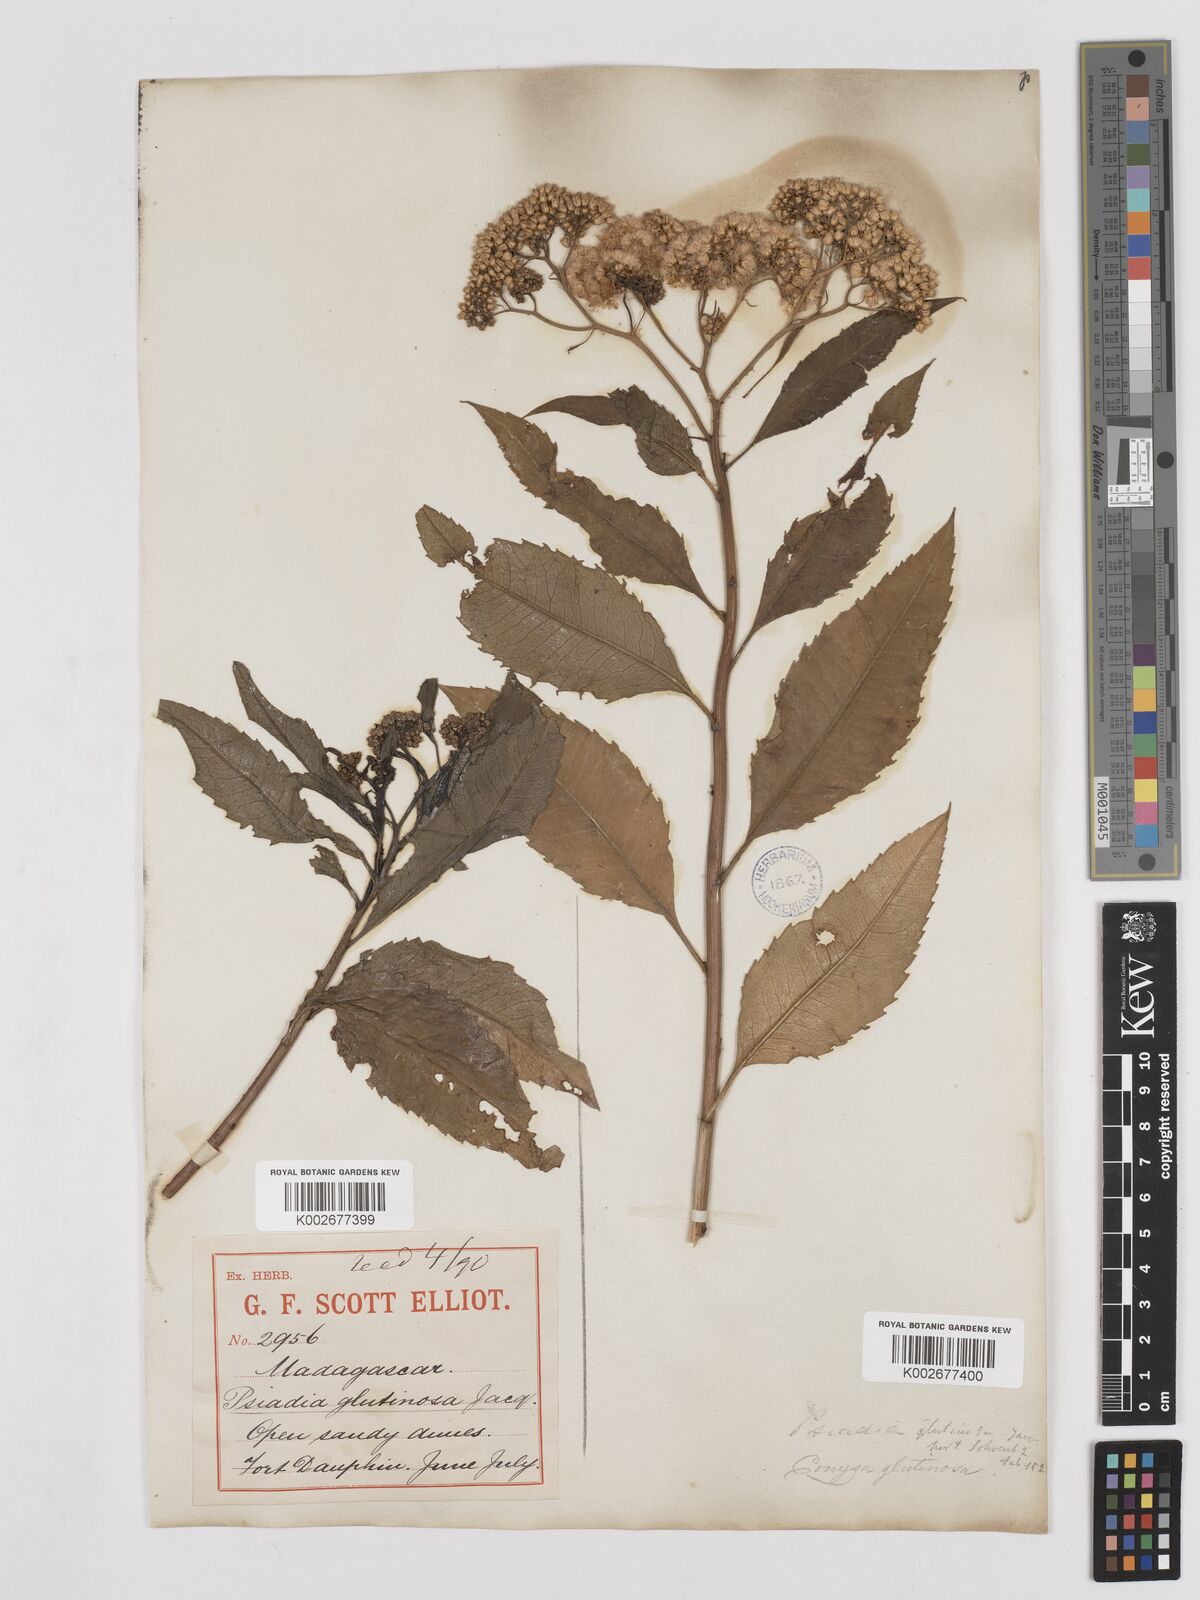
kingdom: Plantae
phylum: Tracheophyta
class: Magnoliopsida
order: Asterales
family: Asteraceae
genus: Psiadia
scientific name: Psiadia glutinosa
